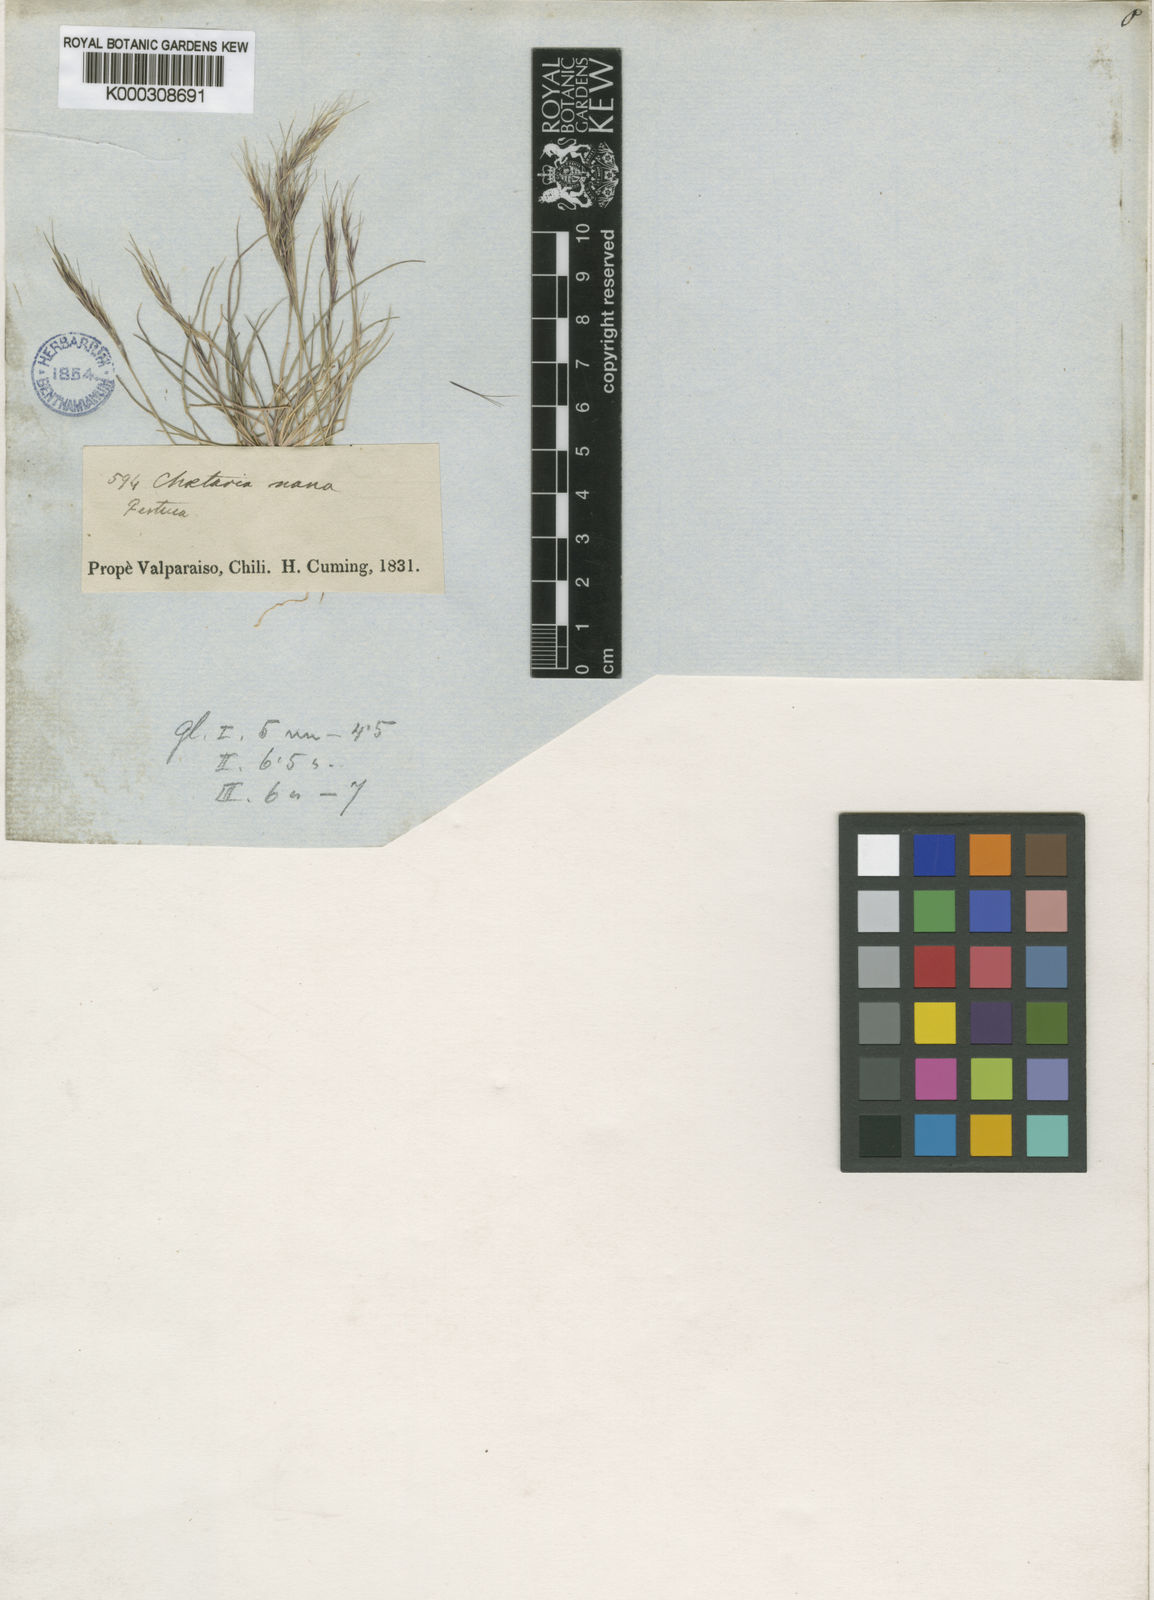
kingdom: Plantae
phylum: Tracheophyta
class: Liliopsida
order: Poales
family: Poaceae
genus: Aristida
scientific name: Aristida adscensionis
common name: Sixweeks threeawn
